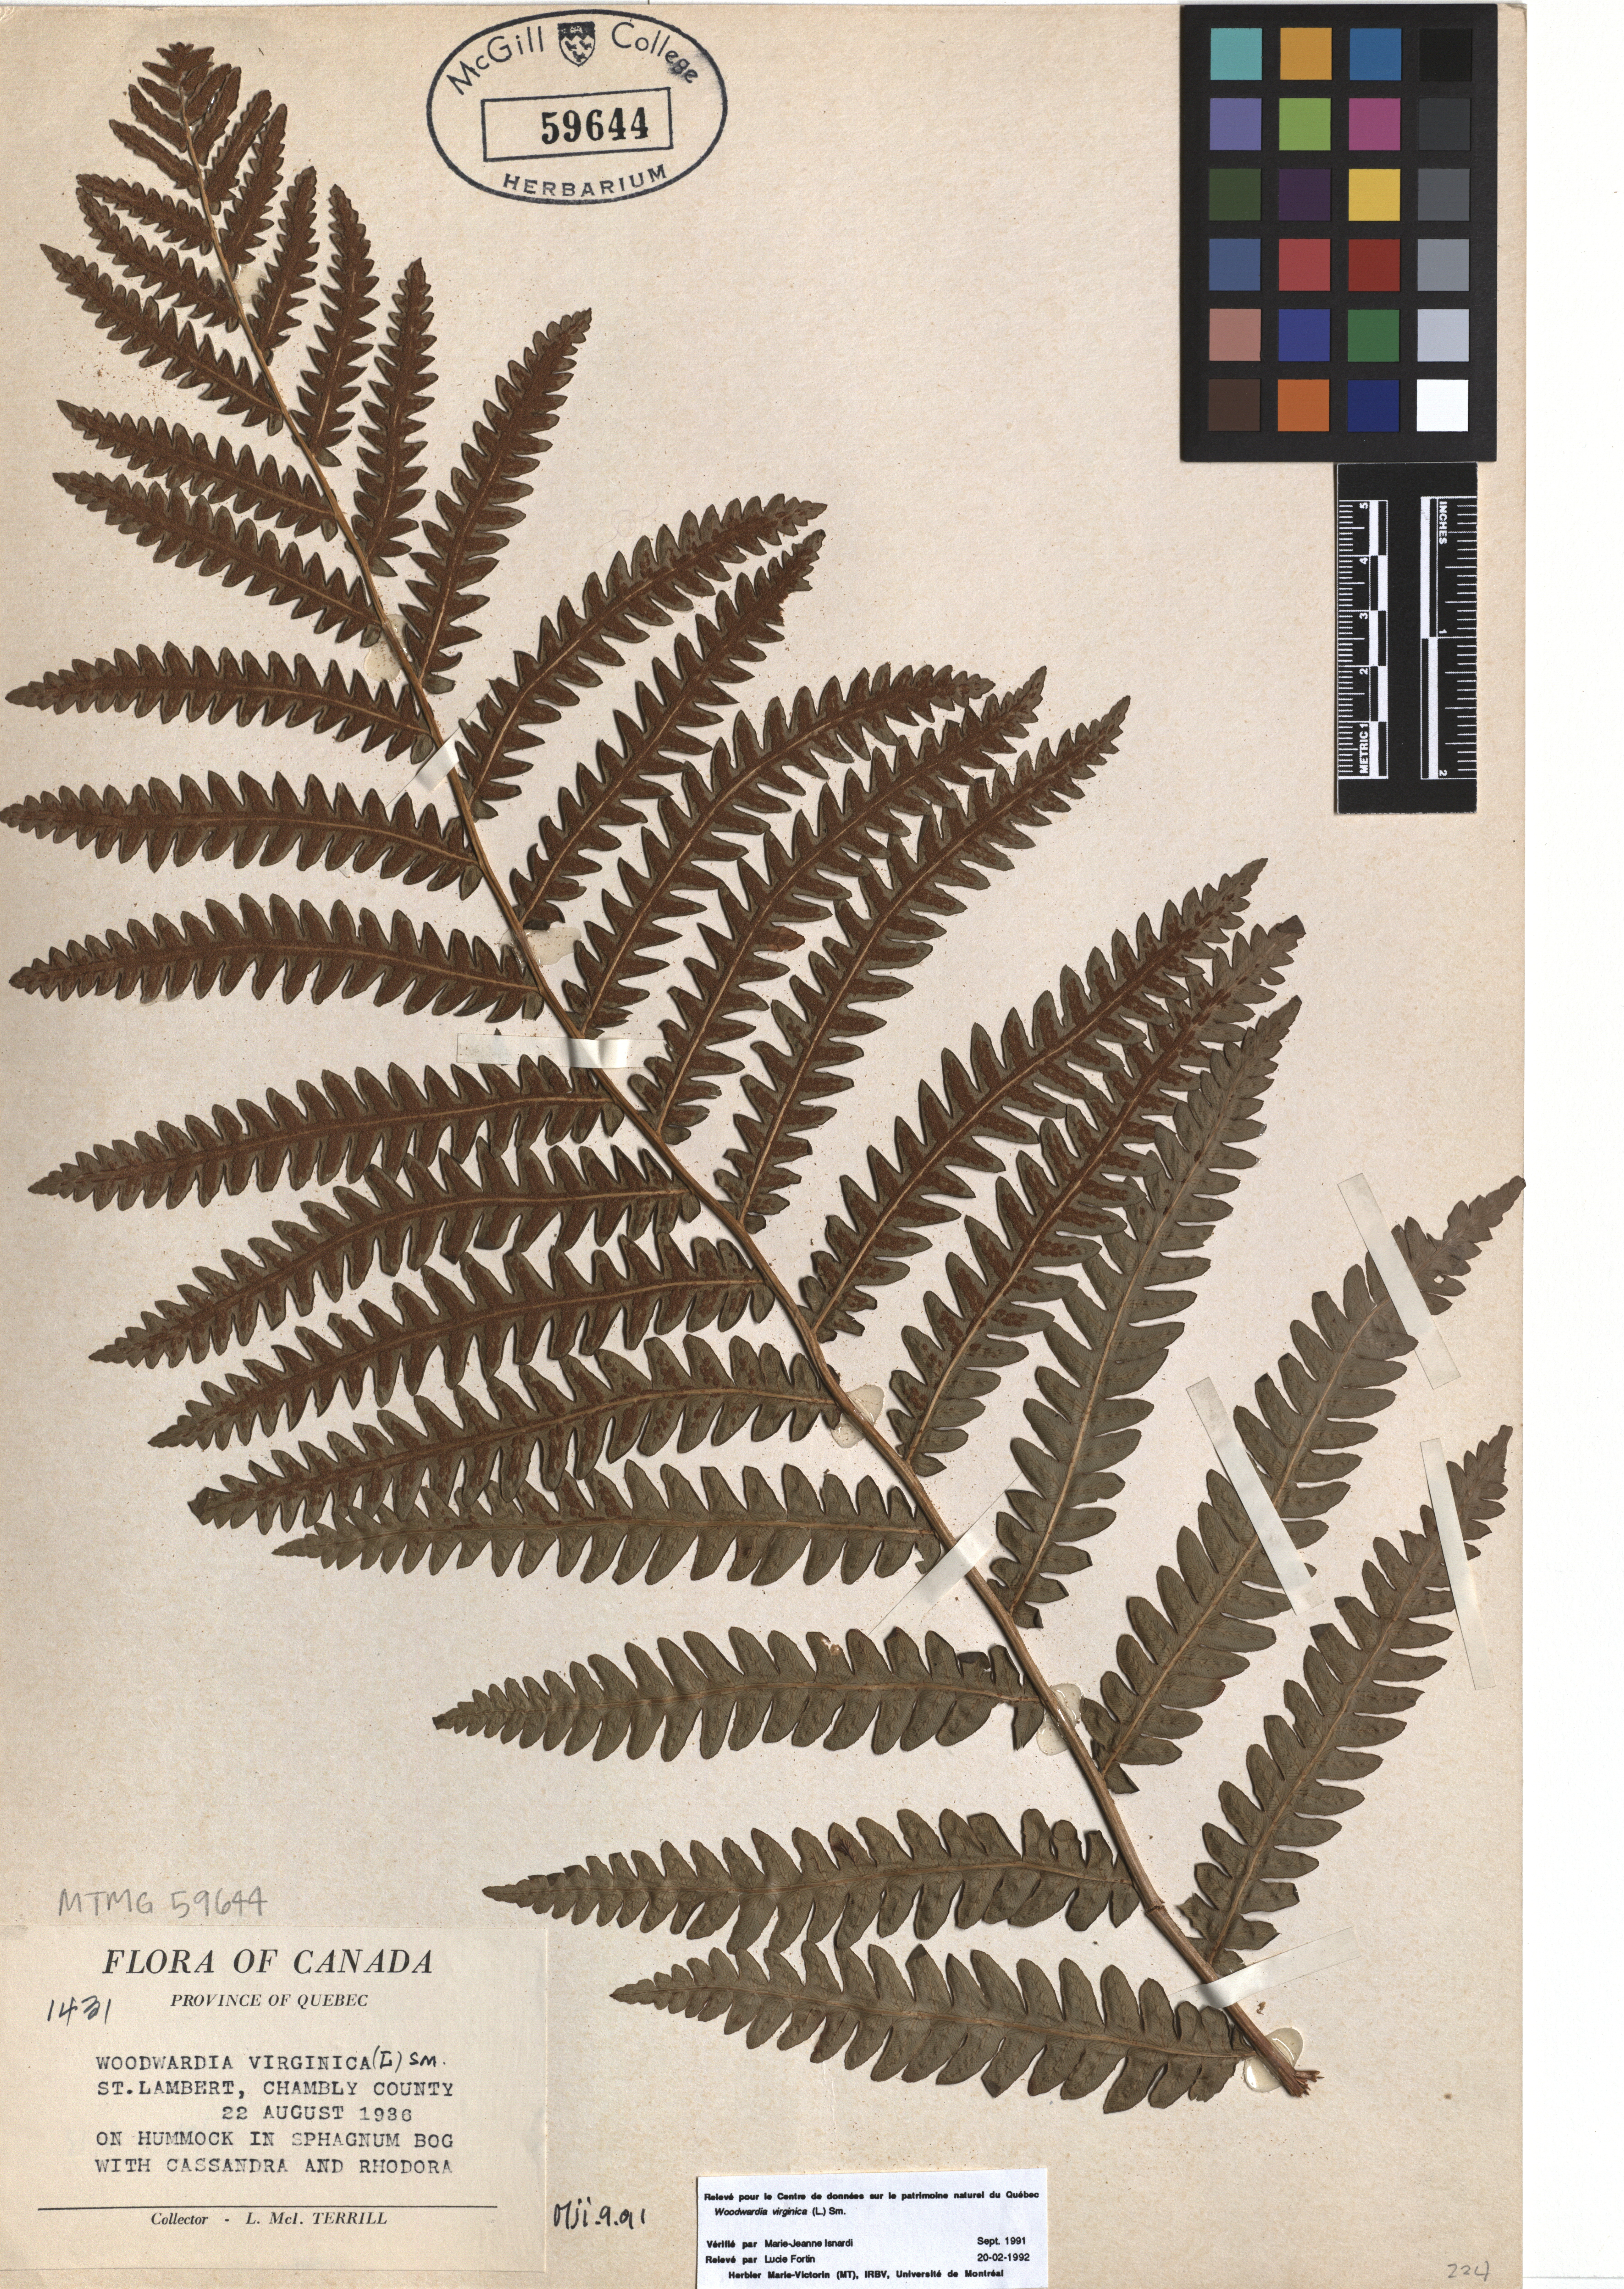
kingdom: Plantae
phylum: Tracheophyta
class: Polypodiopsida
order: Polypodiales
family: Blechnaceae
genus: Anchistea
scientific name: Anchistea virginica
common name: Virginia chain fern
